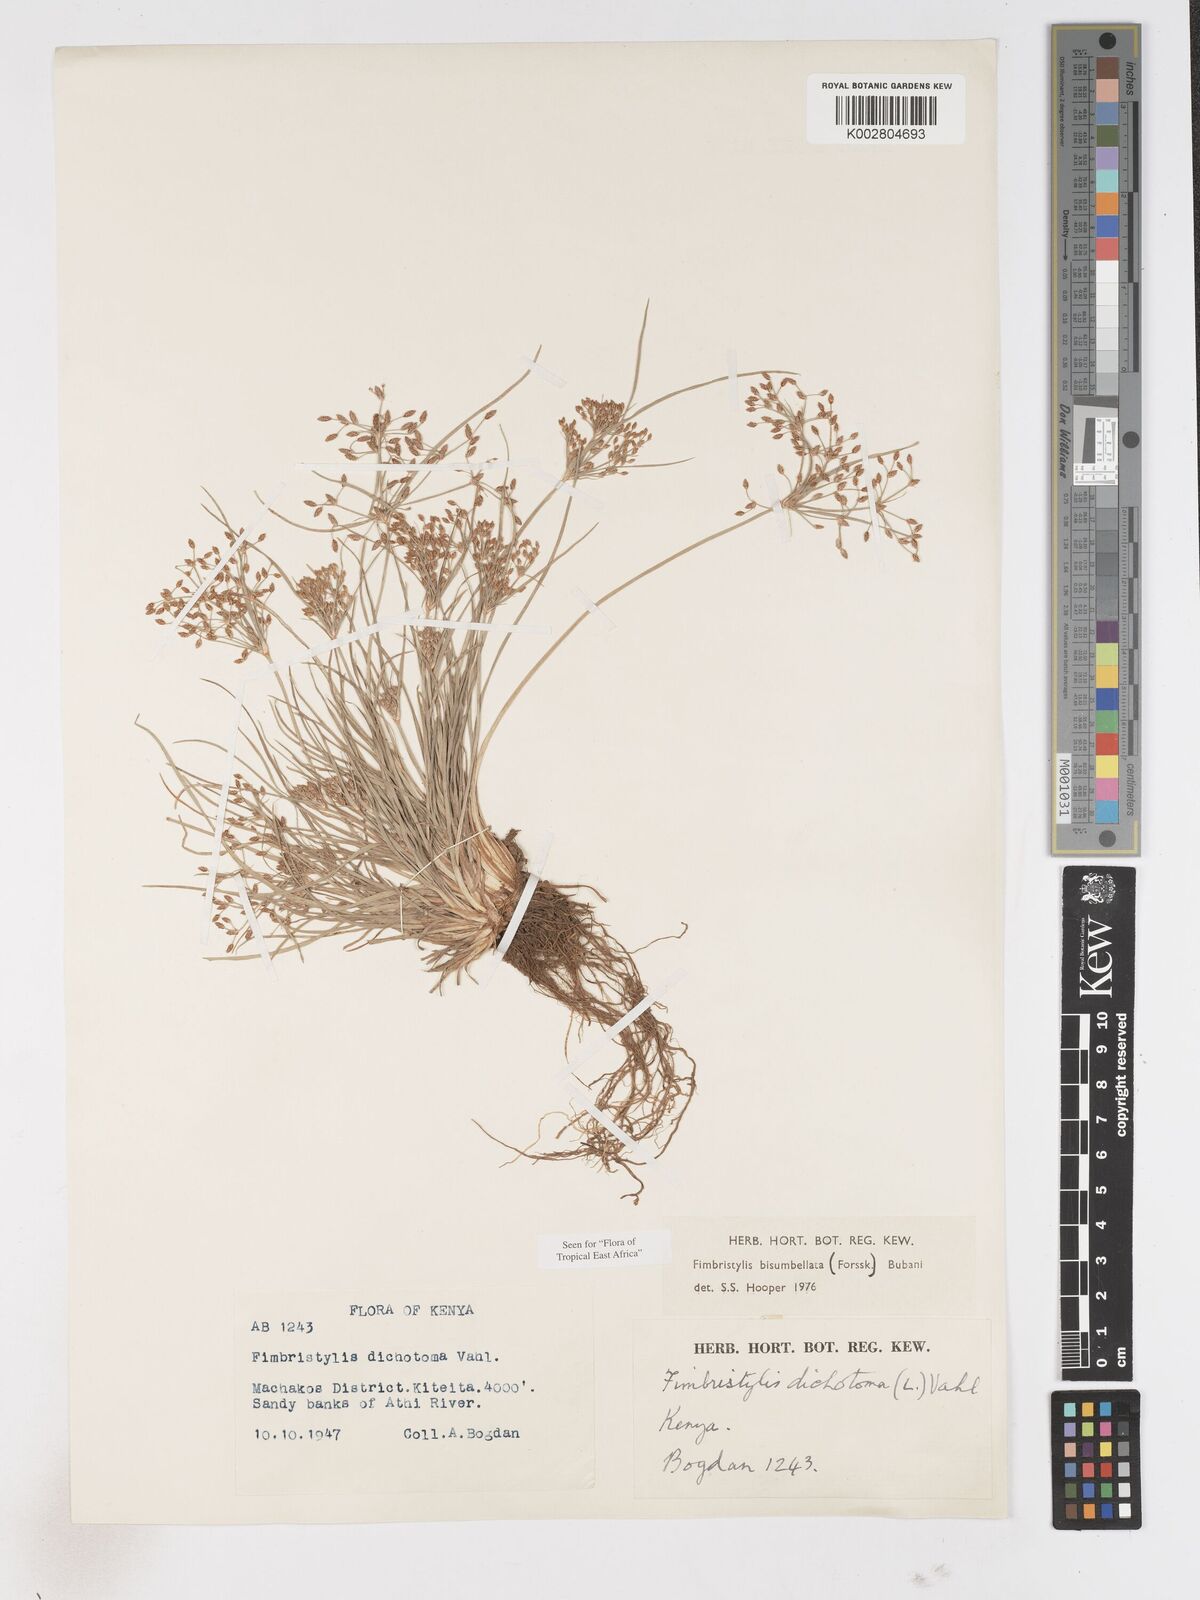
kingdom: Plantae
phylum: Tracheophyta
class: Liliopsida
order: Poales
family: Cyperaceae
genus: Fimbristylis
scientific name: Fimbristylis bisumbellata
